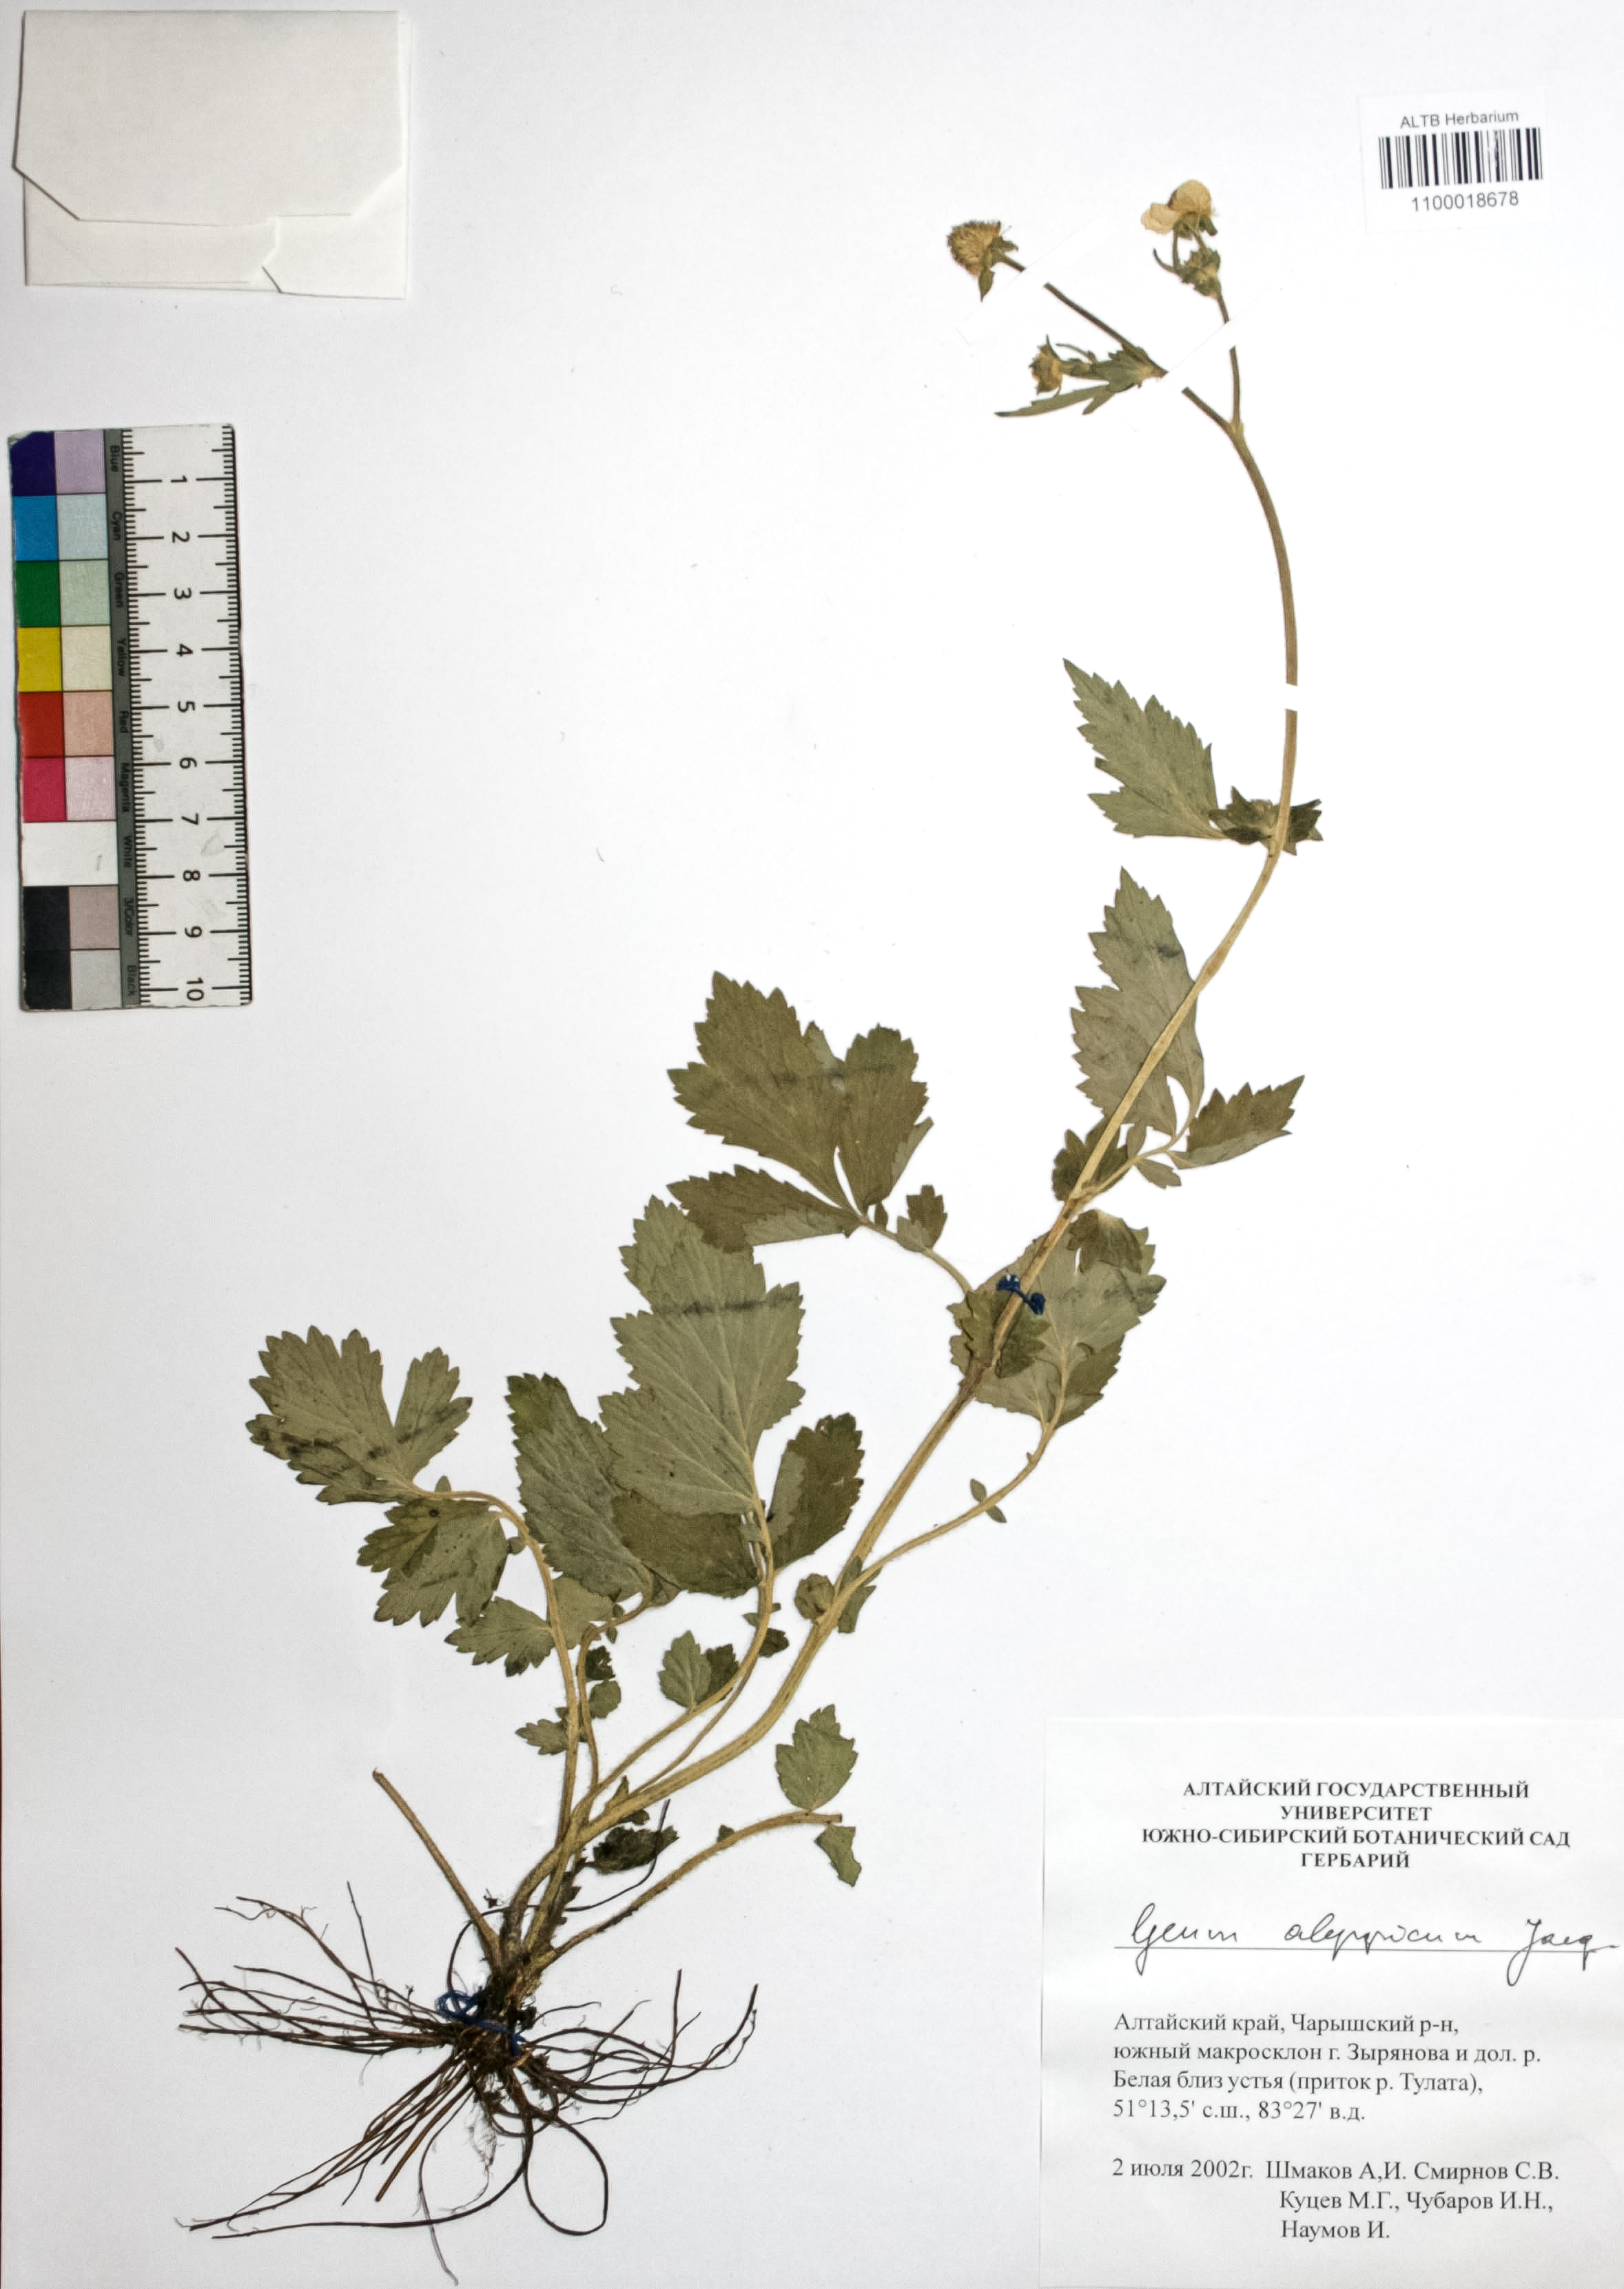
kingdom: Plantae
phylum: Tracheophyta
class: Magnoliopsida
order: Rosales
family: Rosaceae
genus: Geum
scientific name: Geum aleppicum
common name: Yellow avens
